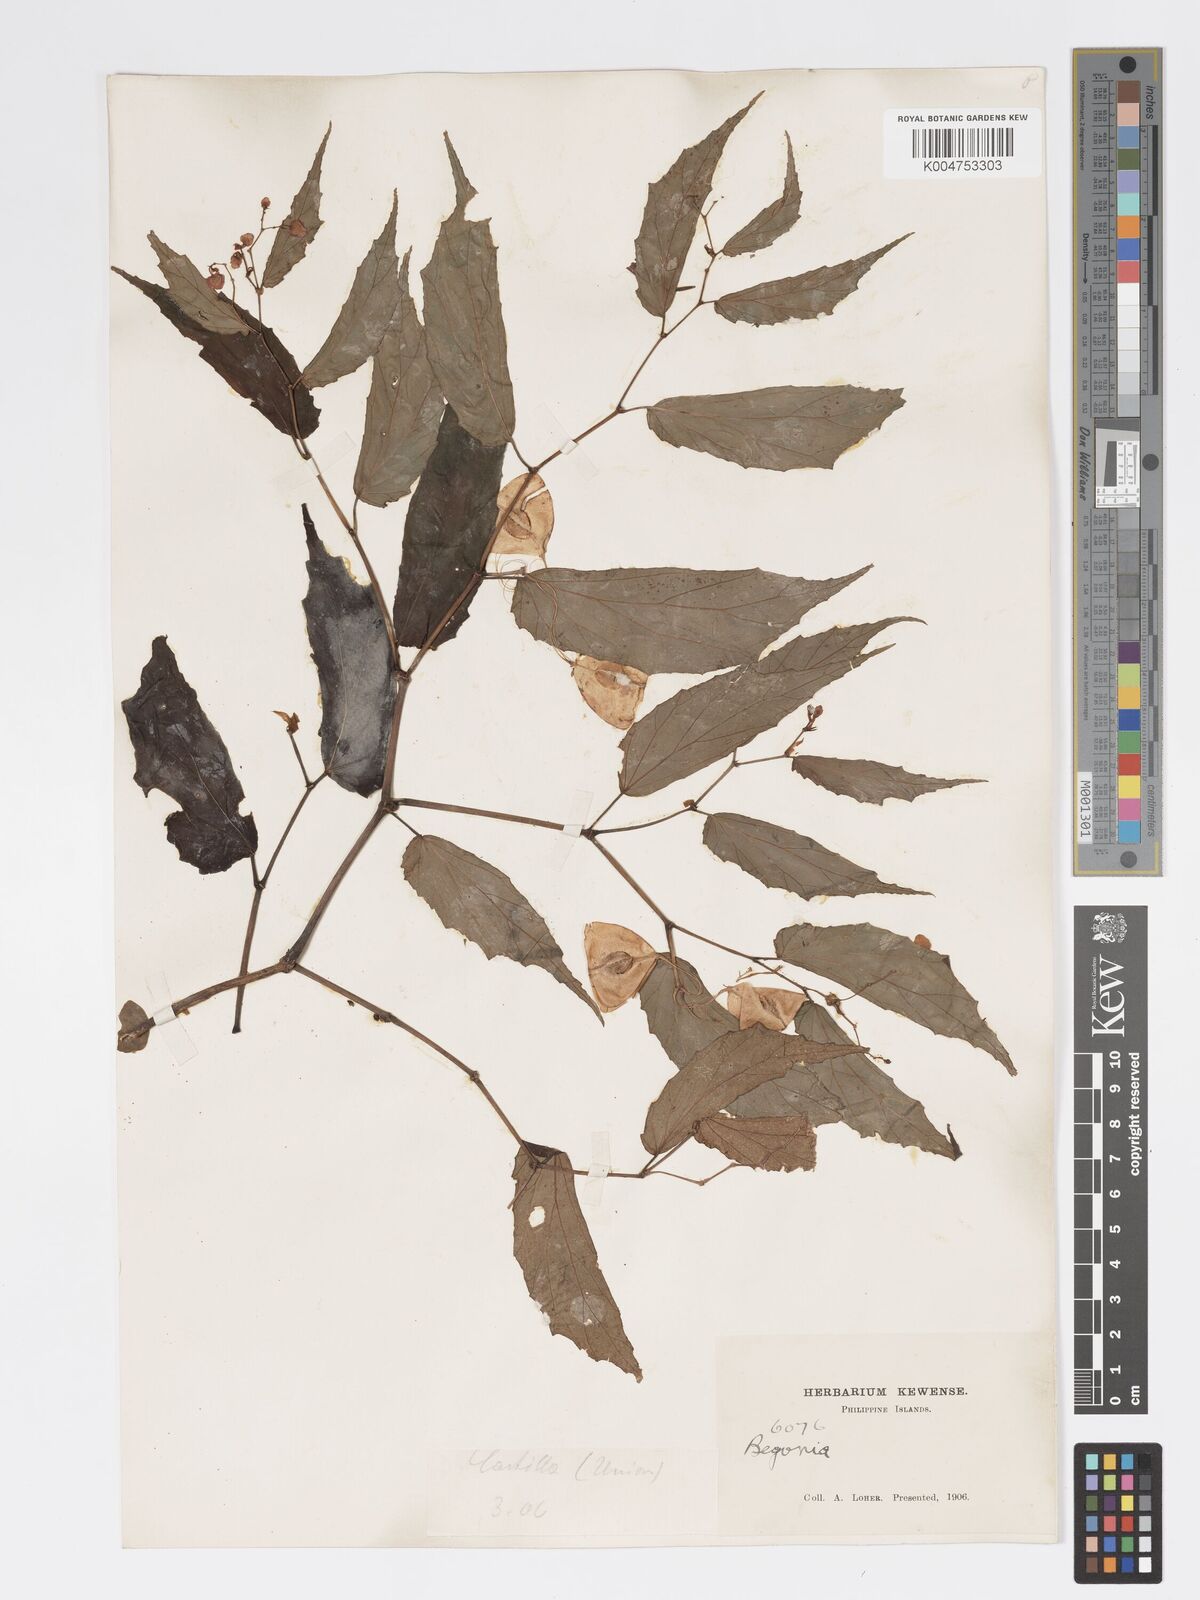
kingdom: Plantae
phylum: Tracheophyta
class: Magnoliopsida
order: Cucurbitales
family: Begoniaceae
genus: Begonia
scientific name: Begonia cumingiana
